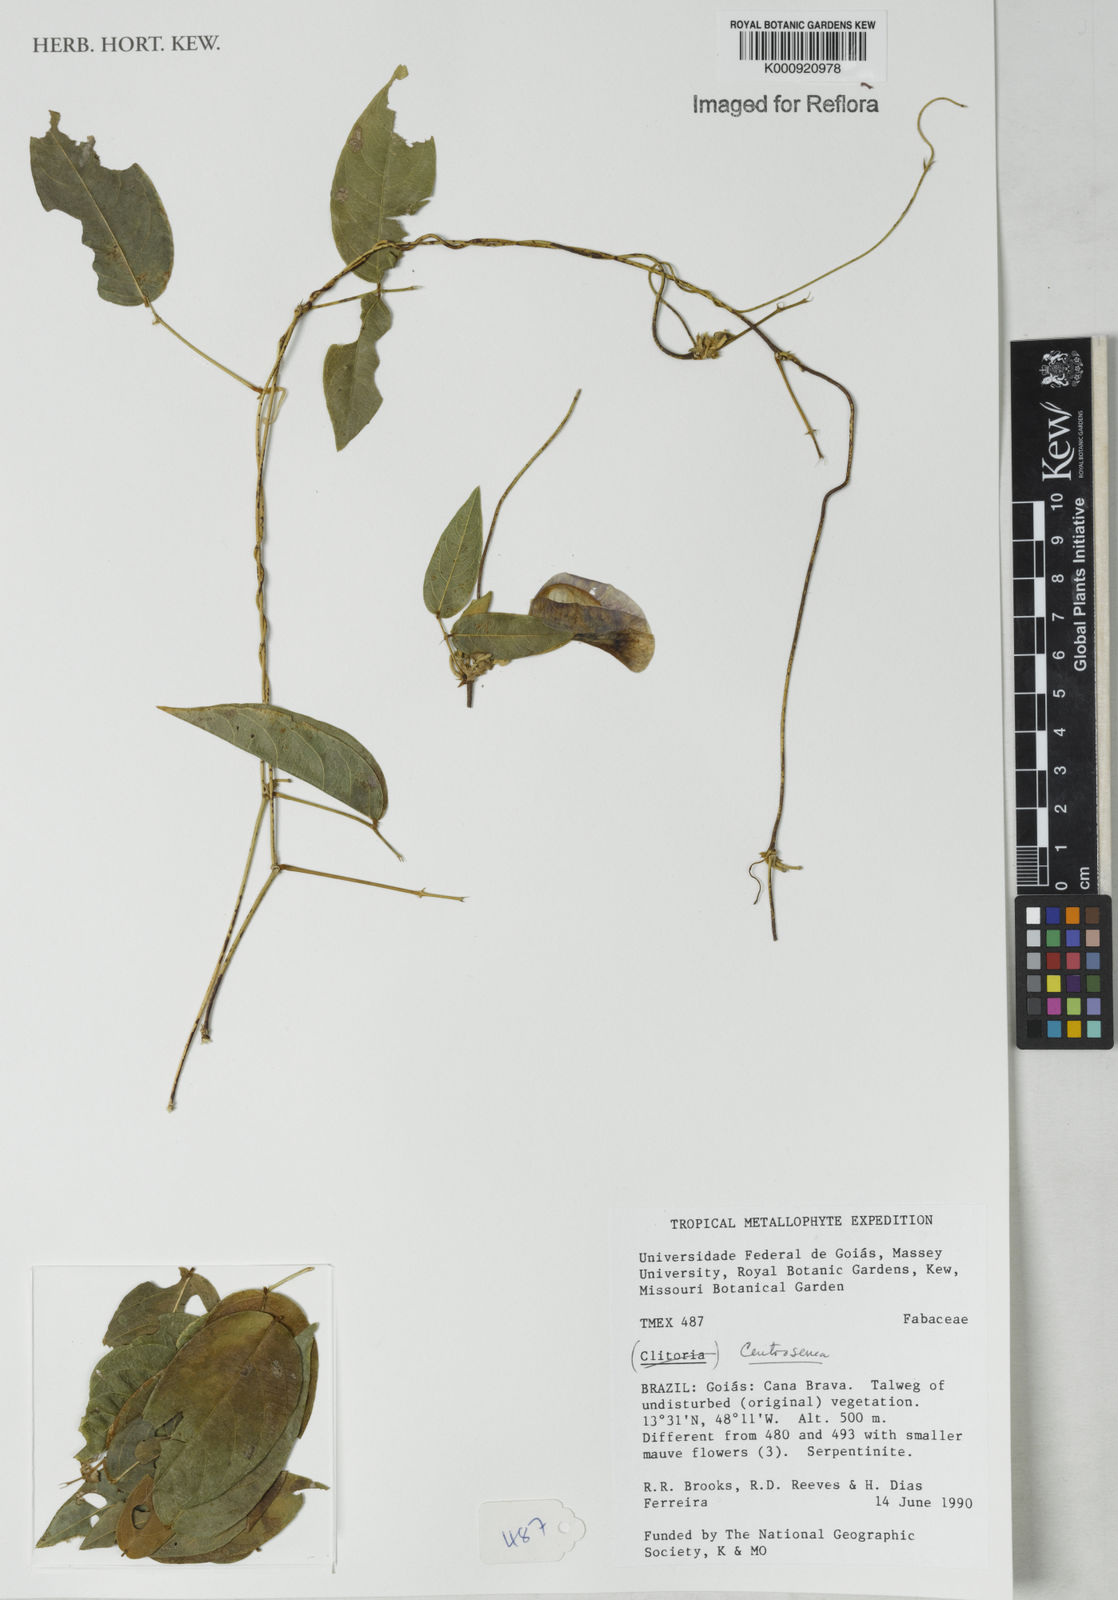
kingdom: Plantae
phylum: Tracheophyta
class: Magnoliopsida
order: Fabales
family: Fabaceae
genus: Centrosema
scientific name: Centrosema
